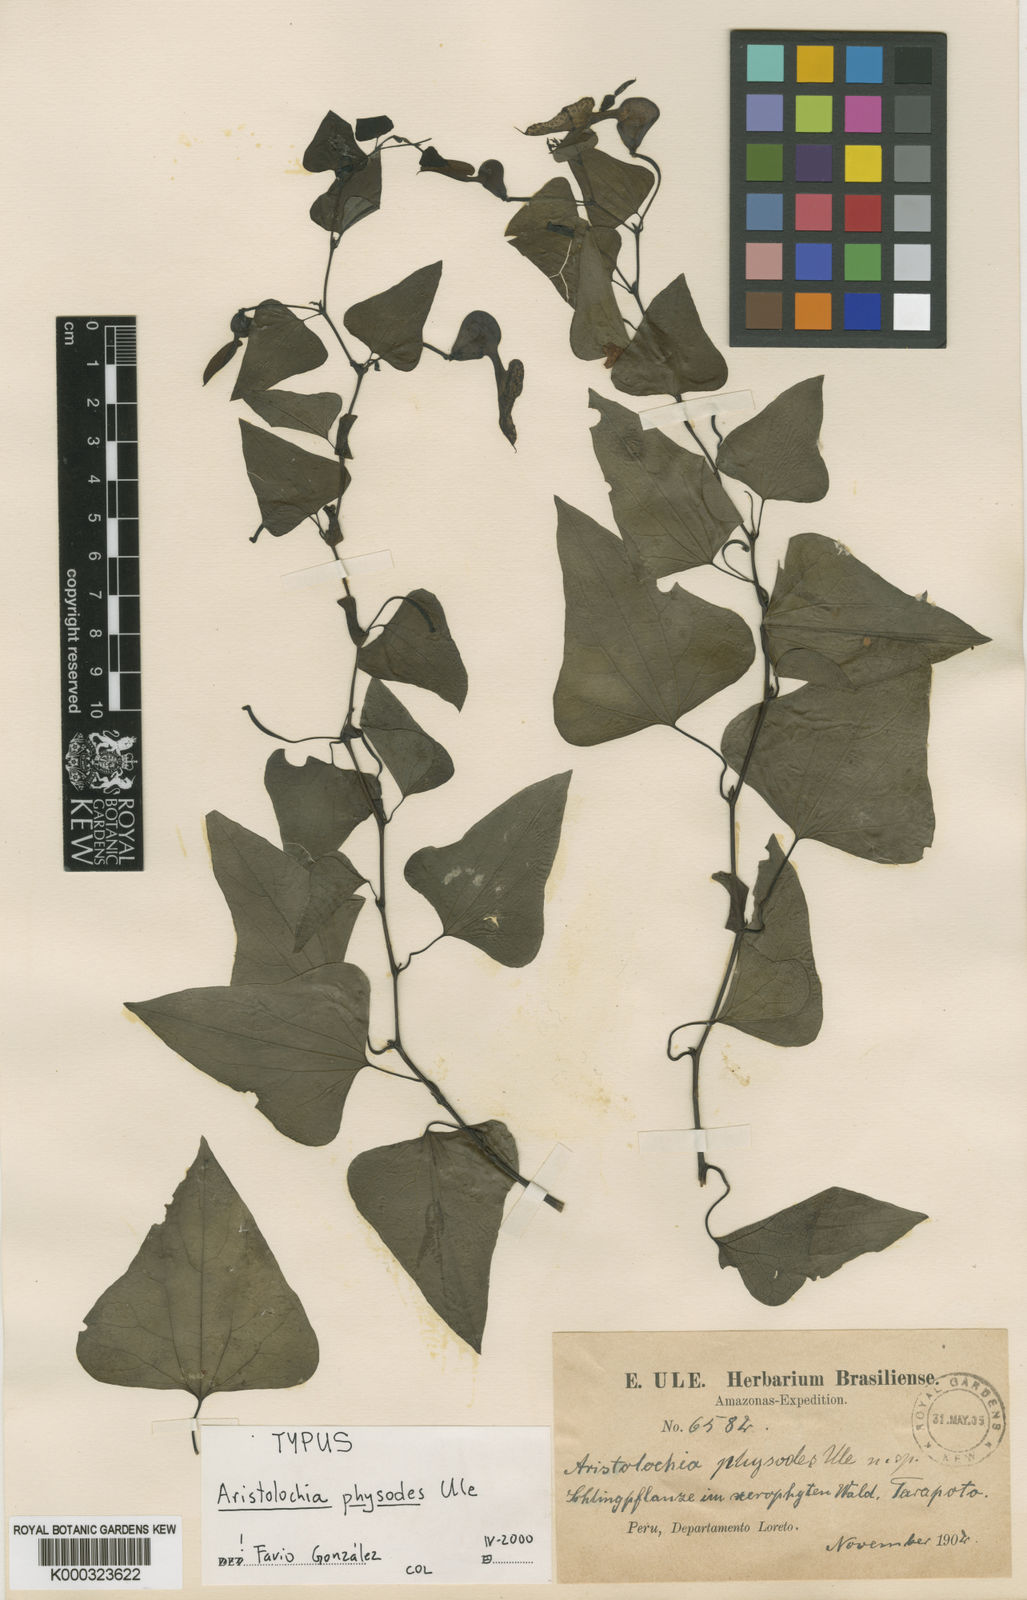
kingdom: Plantae
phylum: Tracheophyta
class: Magnoliopsida
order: Piperales
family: Aristolochiaceae
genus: Aristolochia
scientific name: Aristolochia physodes
